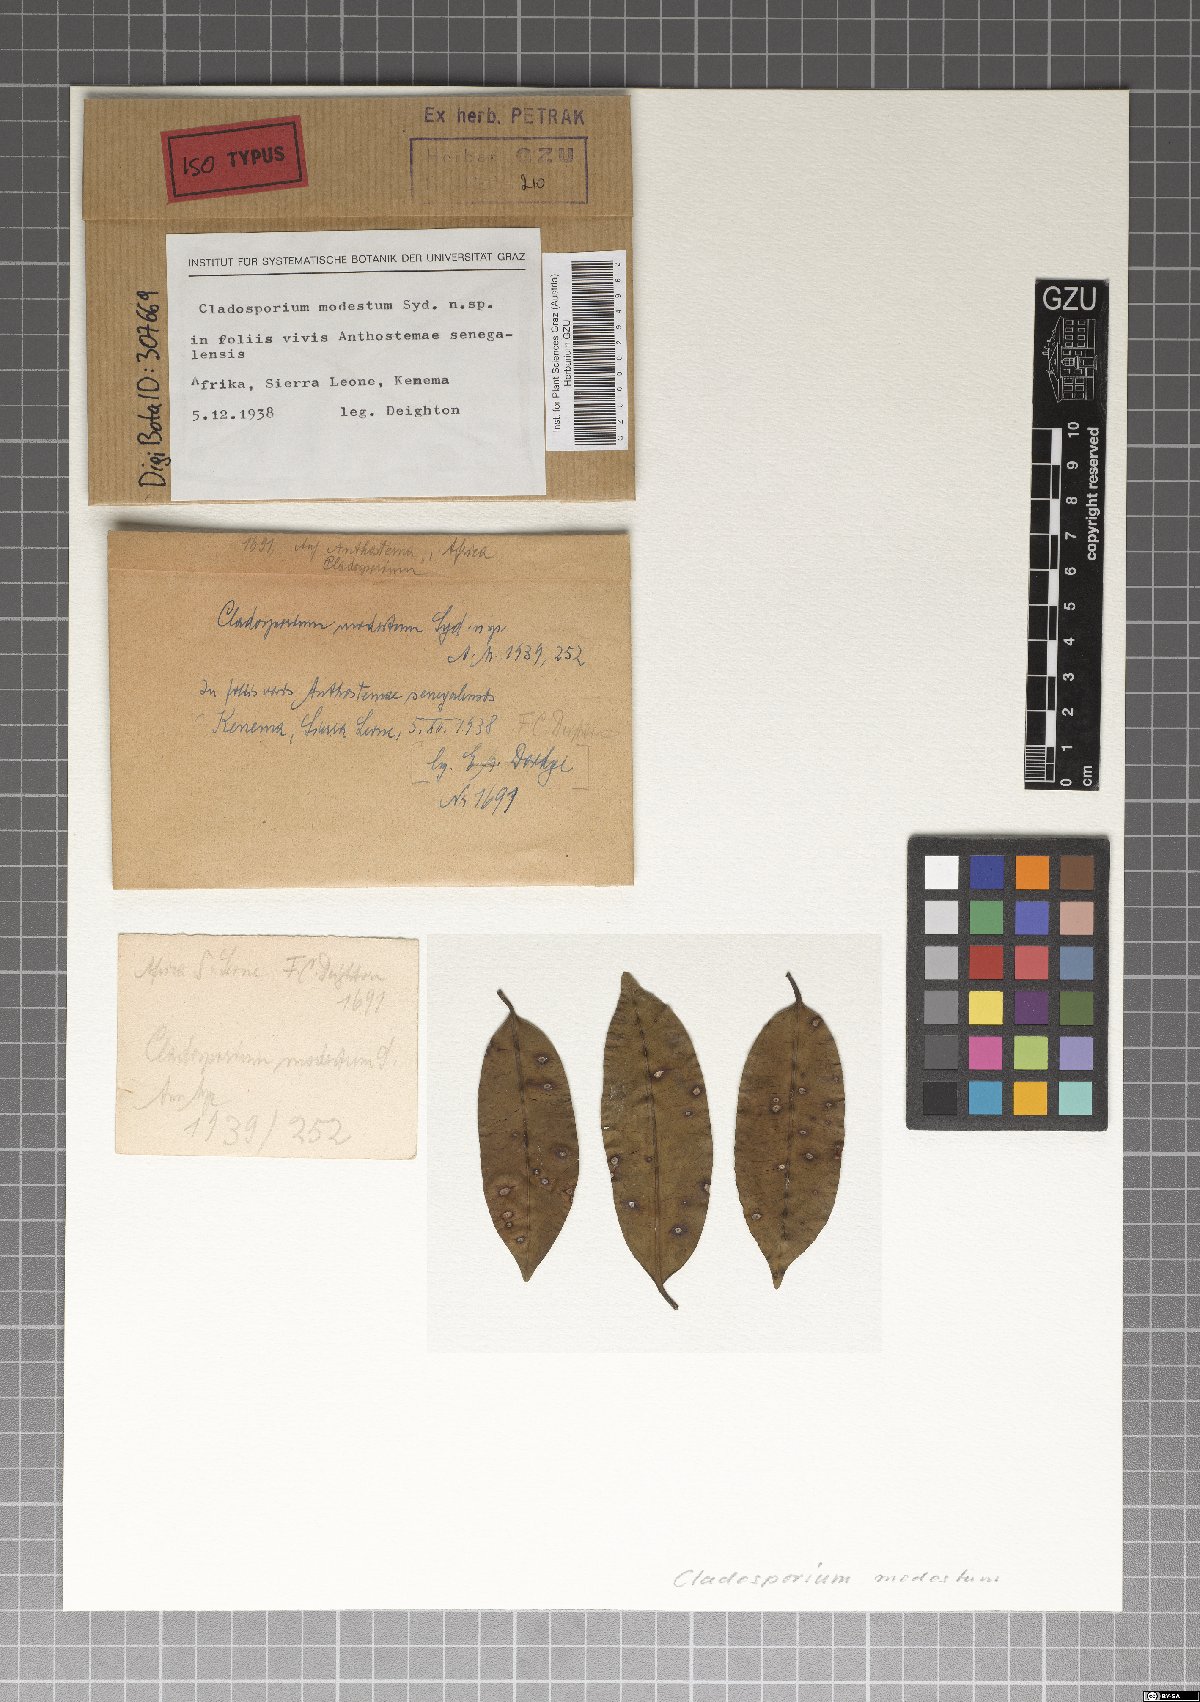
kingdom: Fungi
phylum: Ascomycota
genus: Denticularia
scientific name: Denticularia modesta
